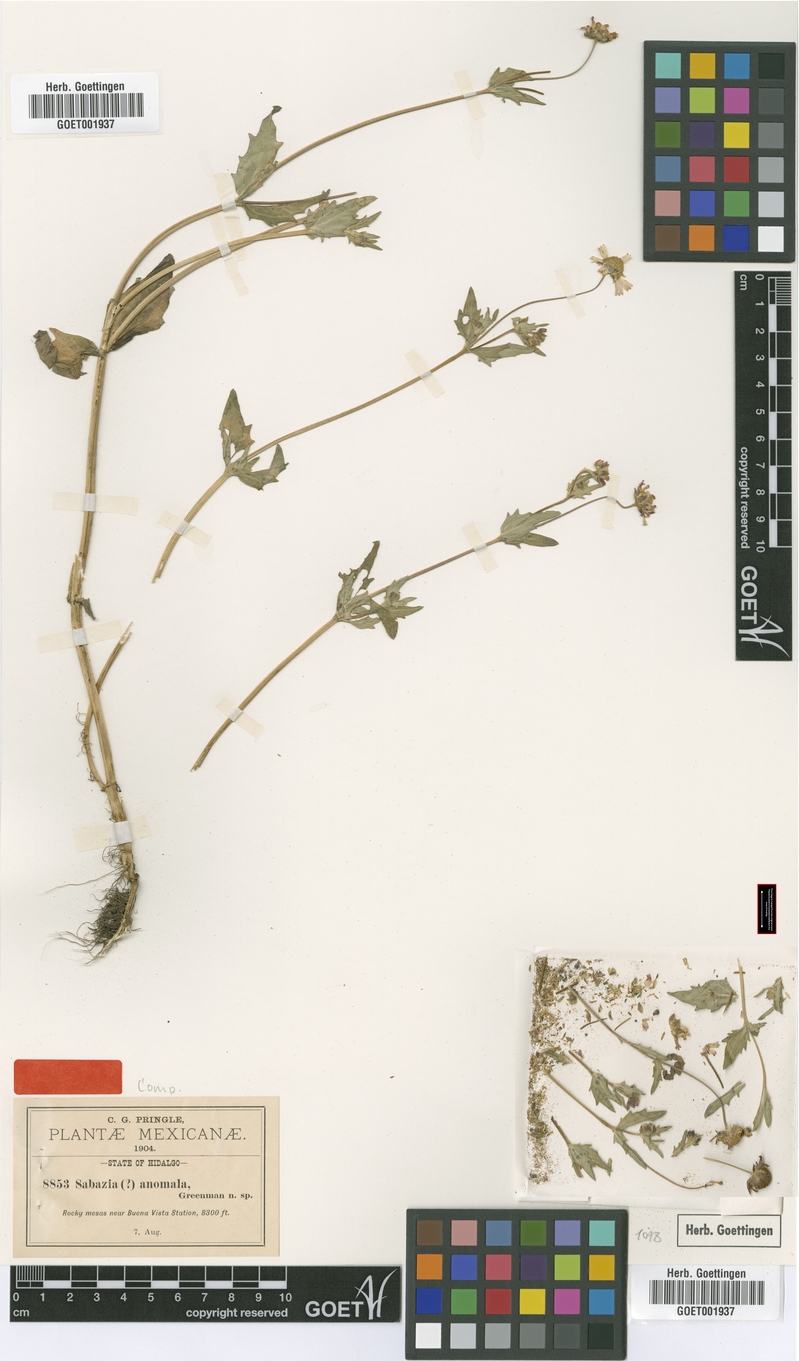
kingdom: Plantae
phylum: Tracheophyta
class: Magnoliopsida
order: Asterales
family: Asteraceae
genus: Eclipta
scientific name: Eclipta alba
